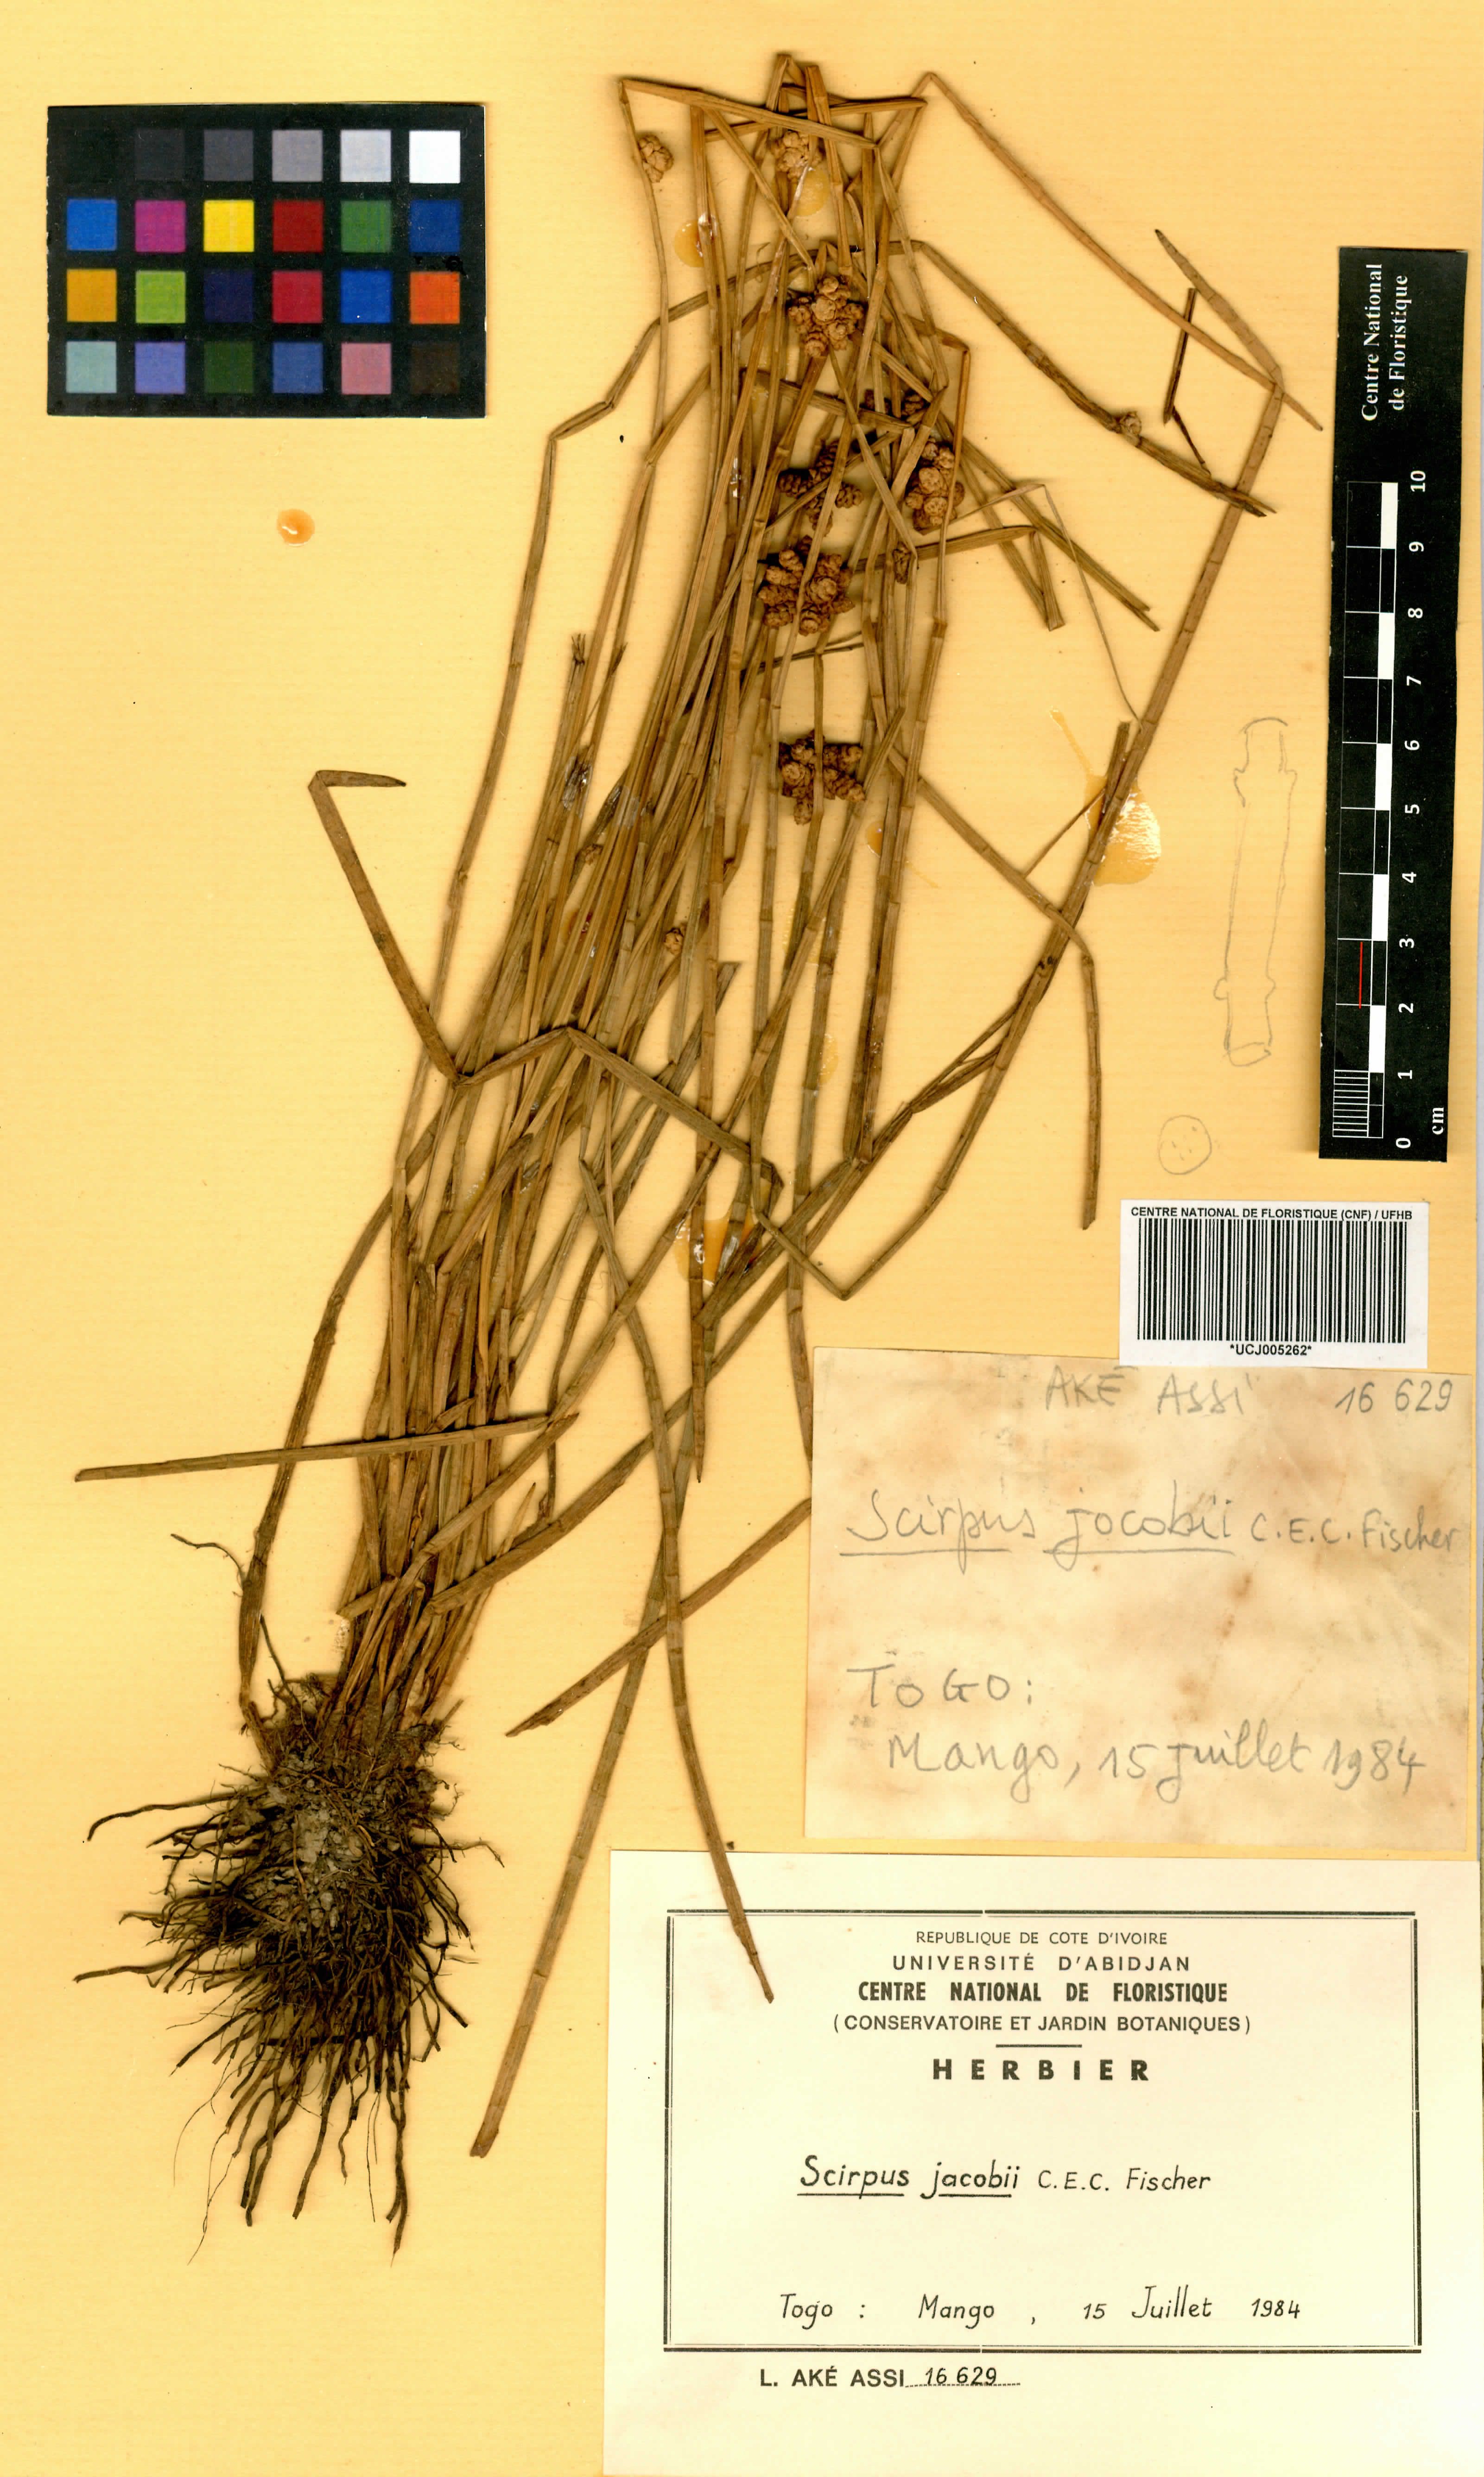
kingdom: Plantae
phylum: Tracheophyta
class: Liliopsida
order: Poales
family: Cyperaceae
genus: Schoenoplectiella
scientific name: Schoenoplectiella senegalensis
